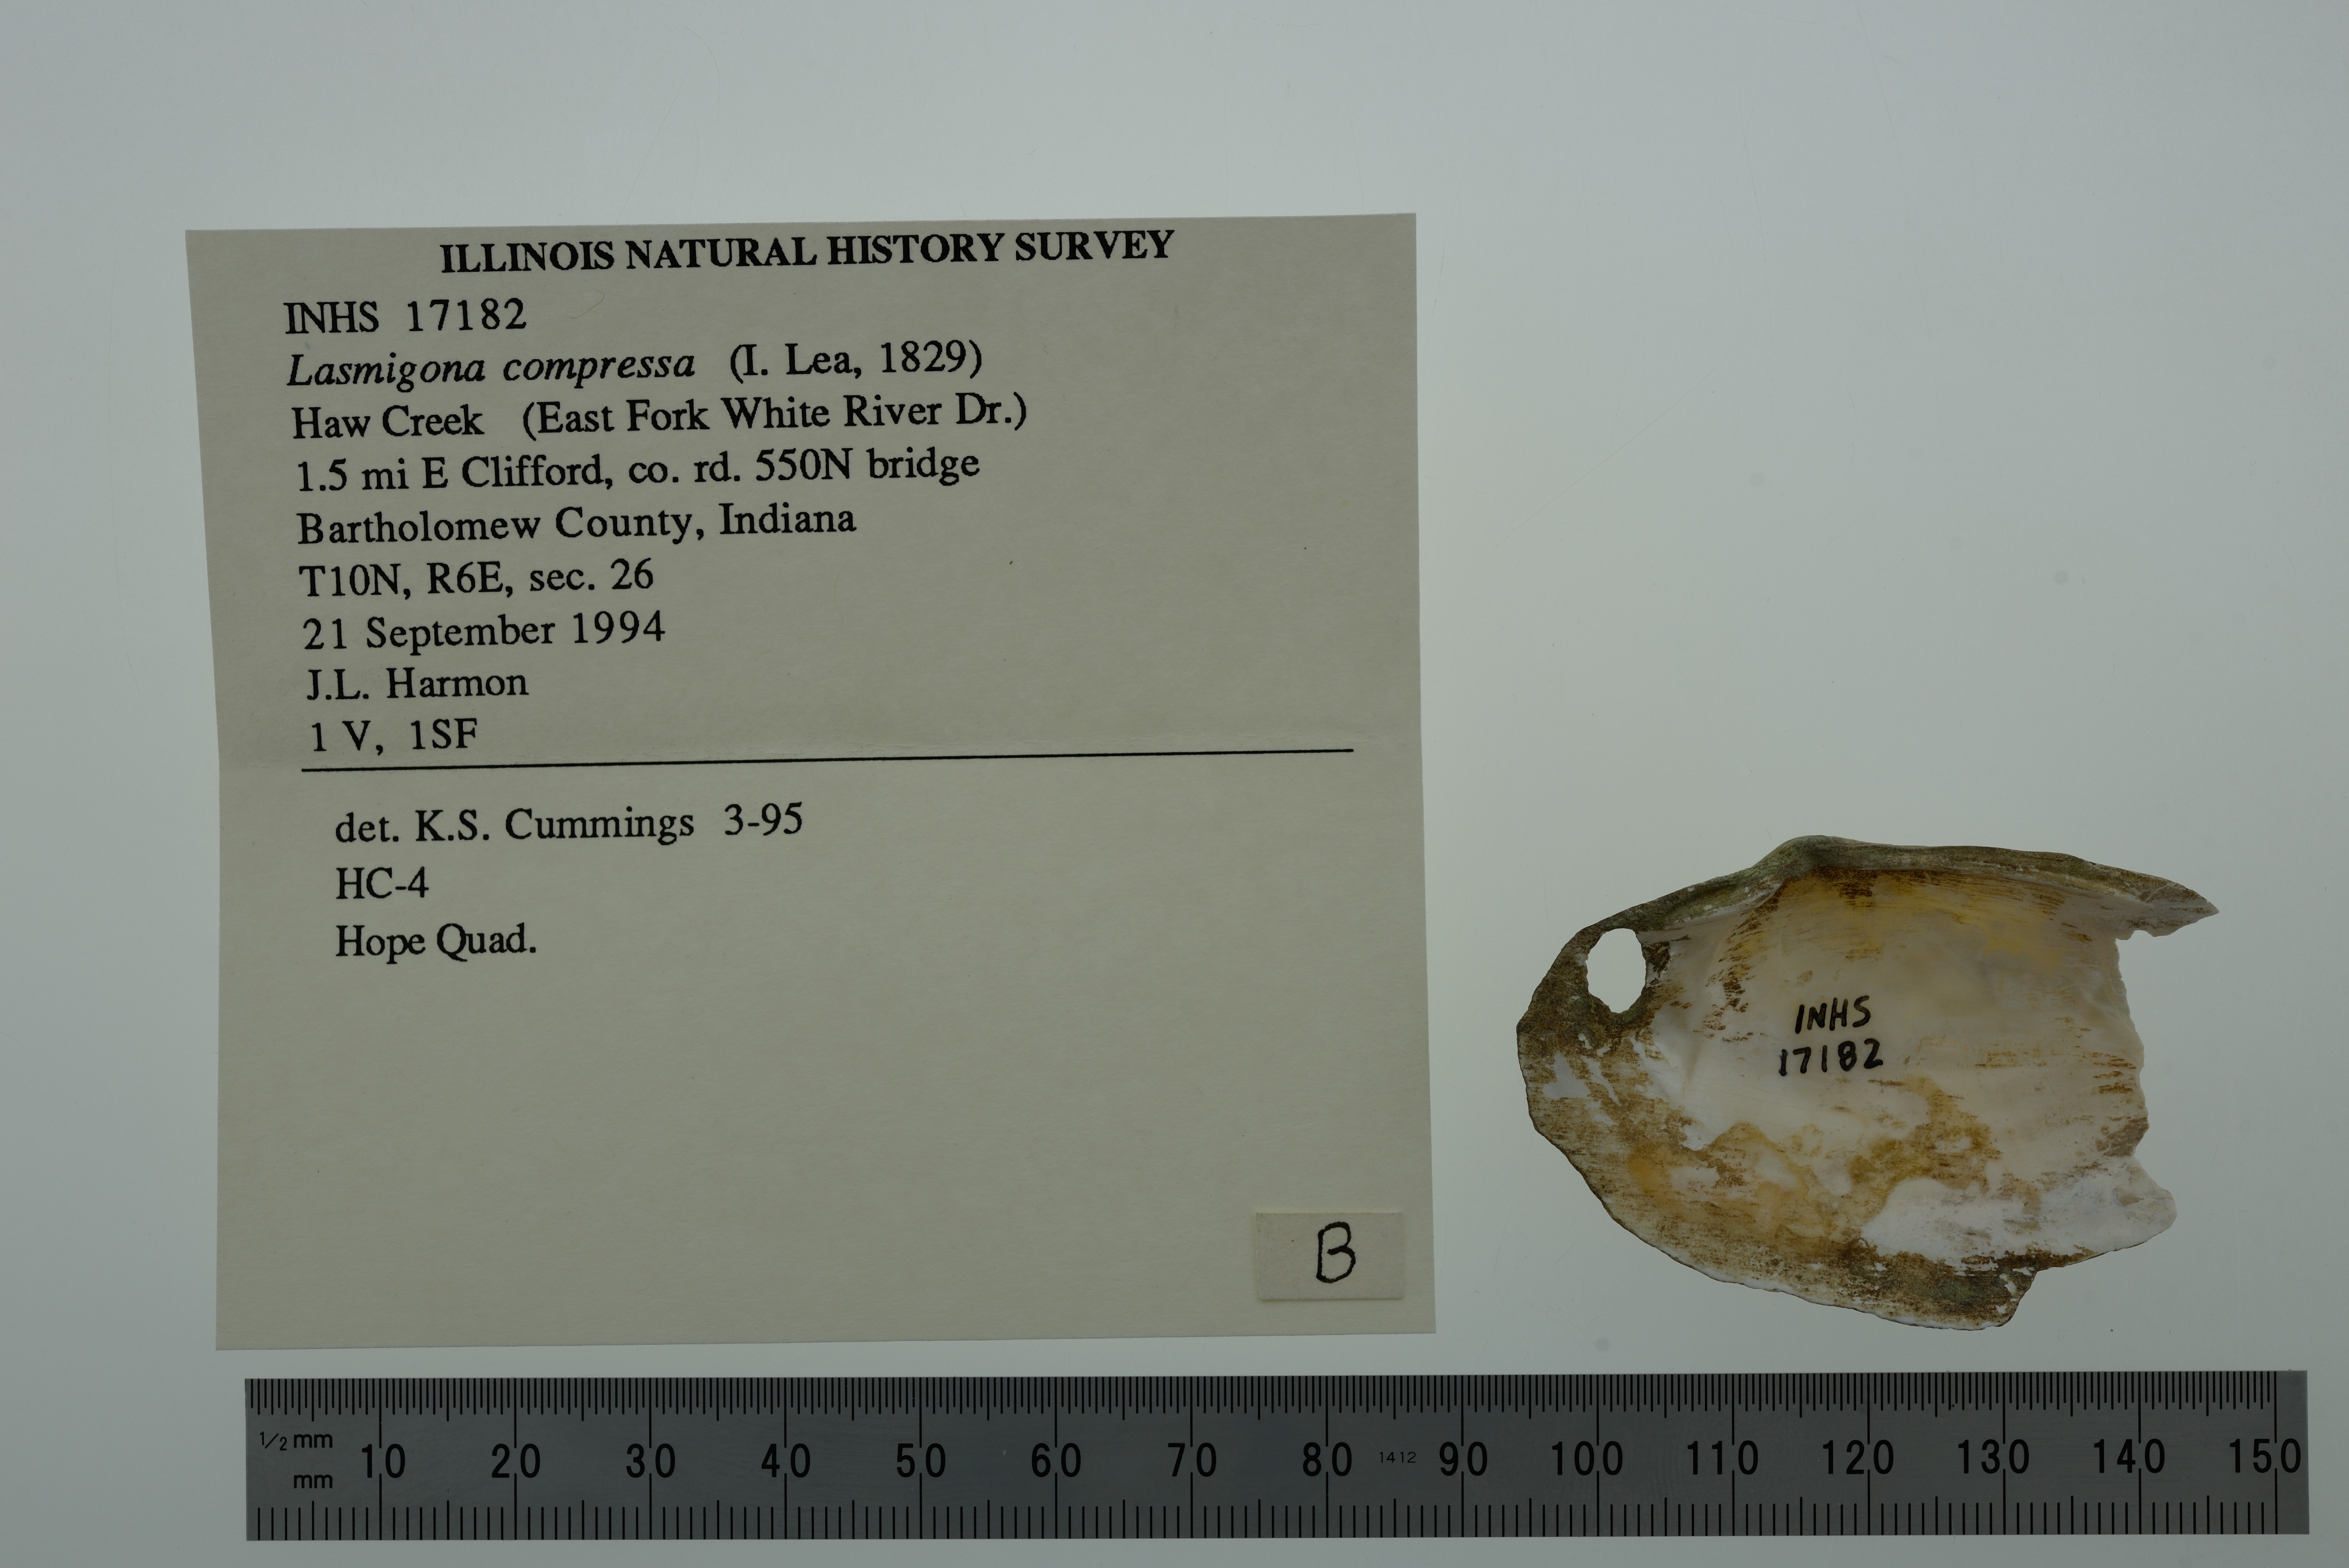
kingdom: Animalia
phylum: Mollusca
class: Bivalvia
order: Unionida
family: Unionidae
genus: Lasmigona
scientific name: Lasmigona compressa
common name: Creek heelsplitter
